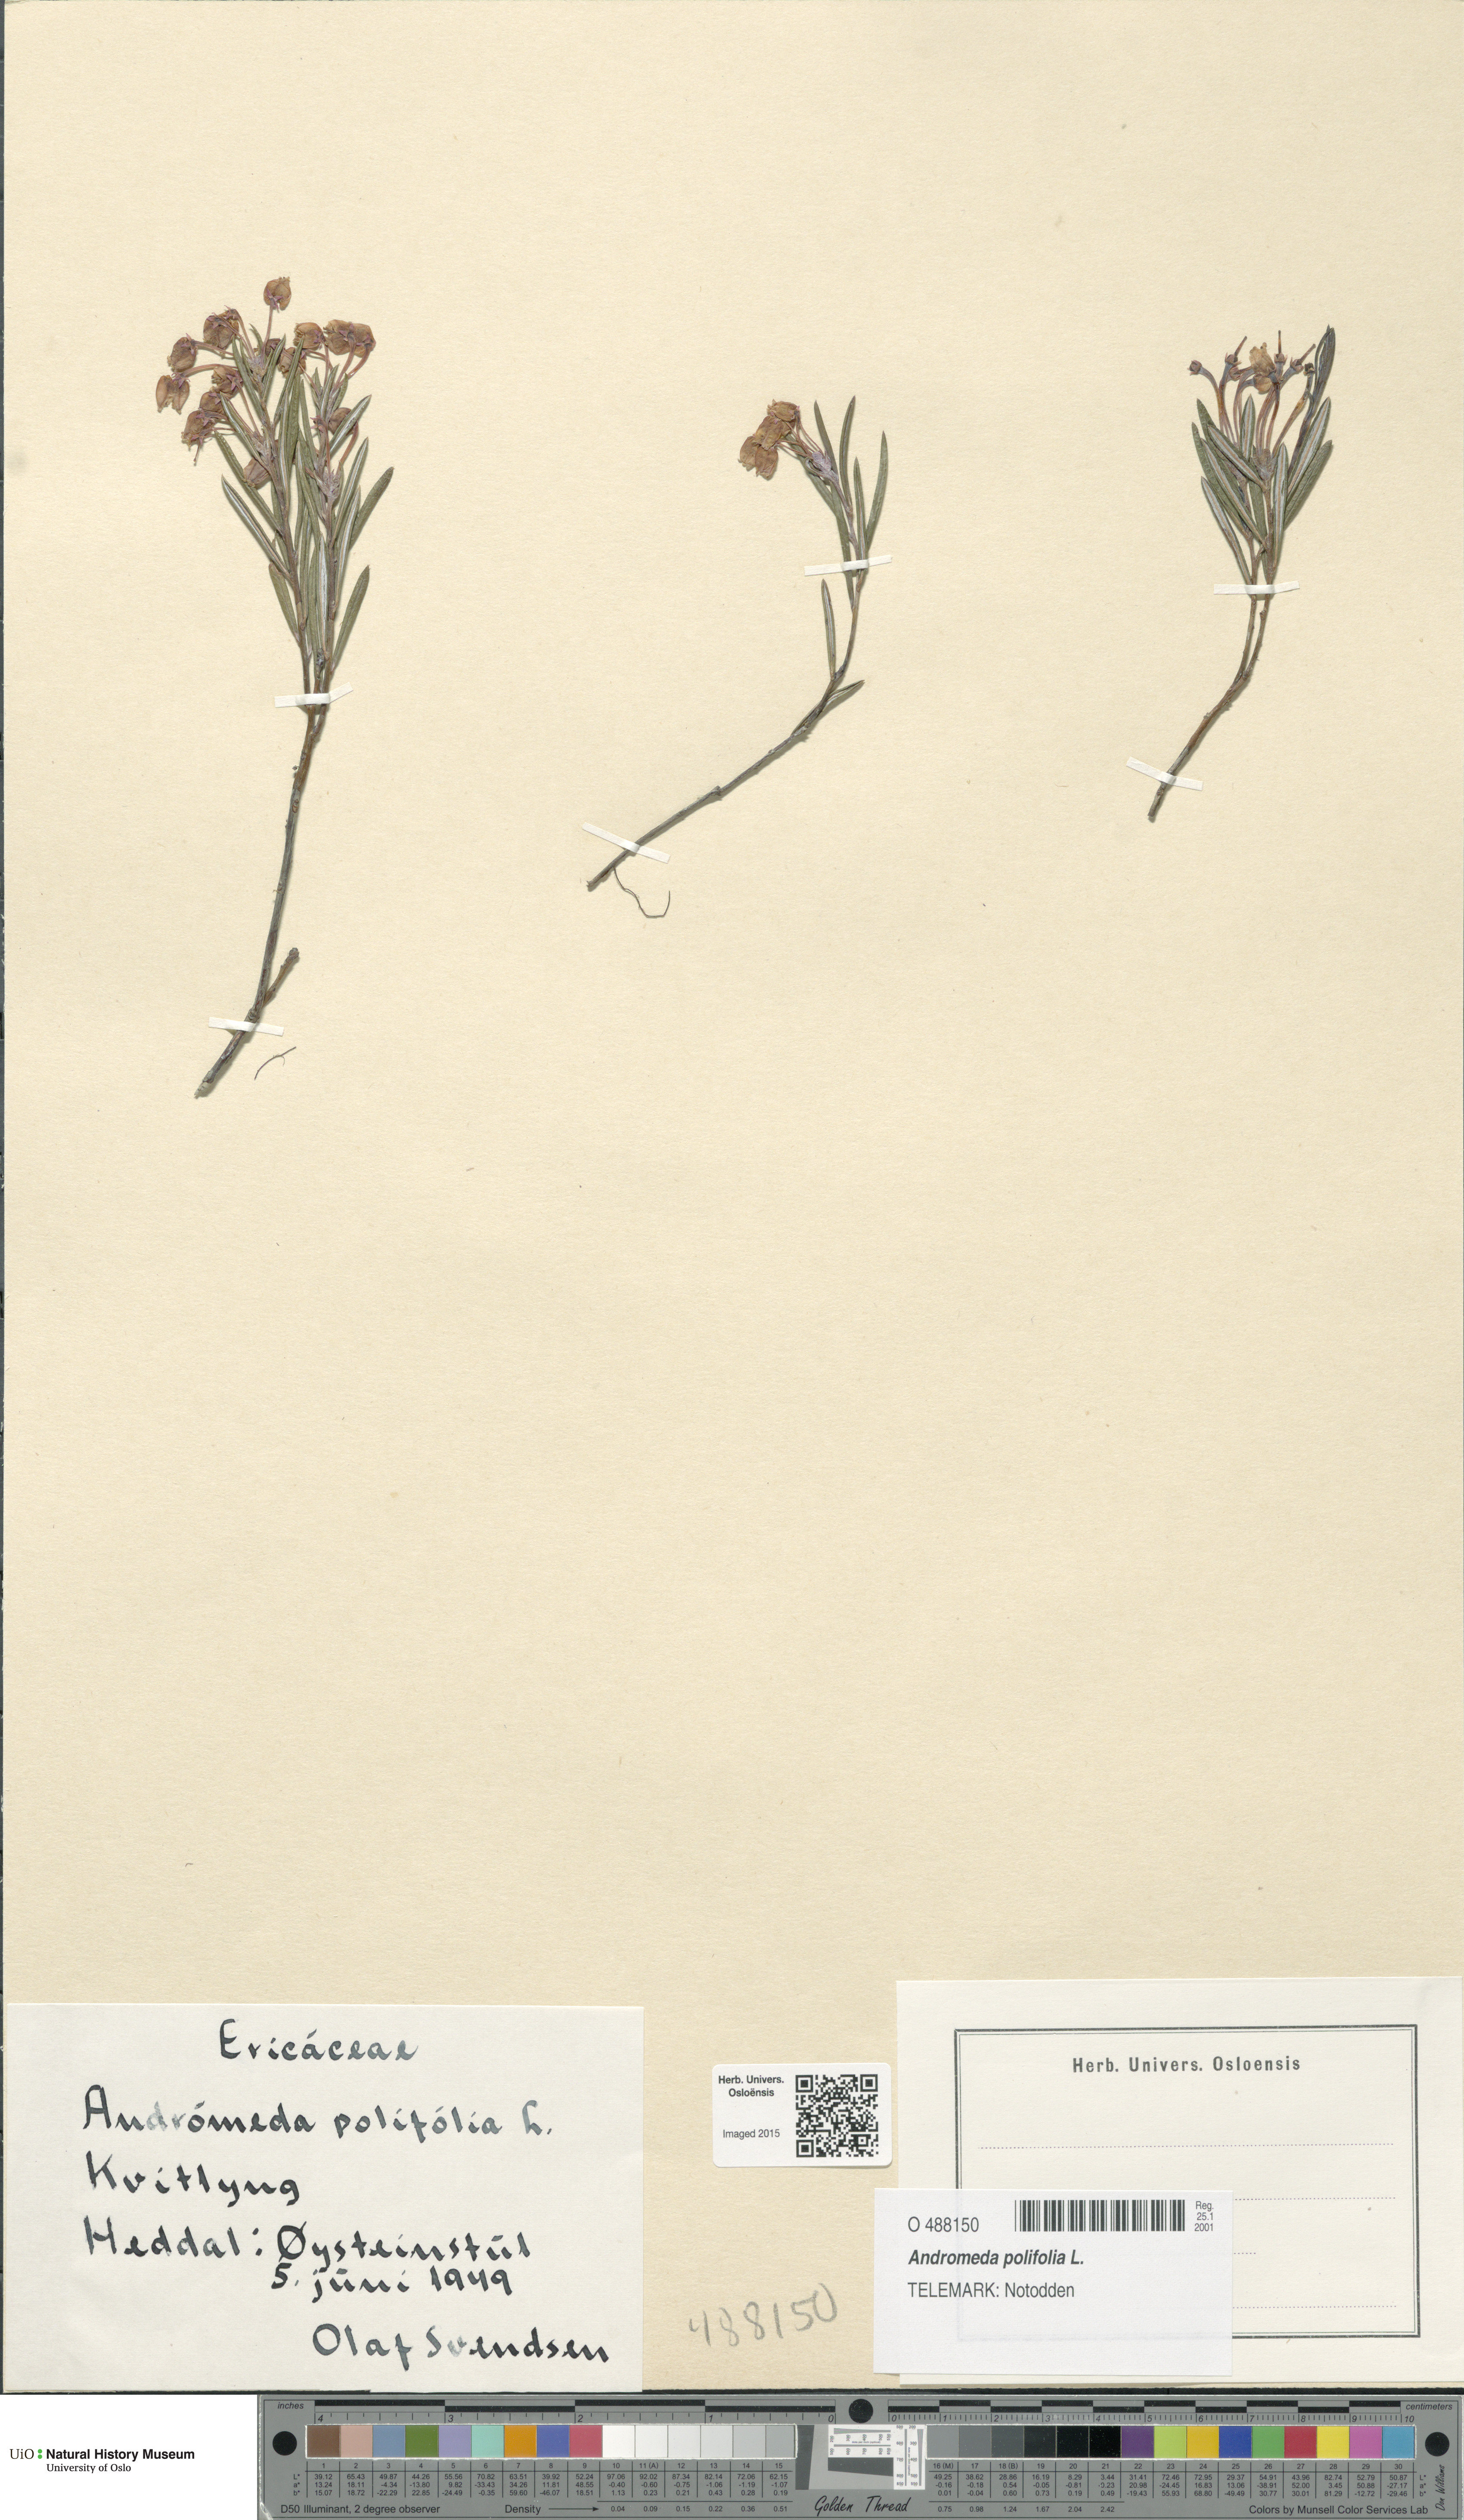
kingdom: Plantae
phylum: Tracheophyta
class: Magnoliopsida
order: Ericales
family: Ericaceae
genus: Andromeda
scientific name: Andromeda polifolia
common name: Bog-rosemary
